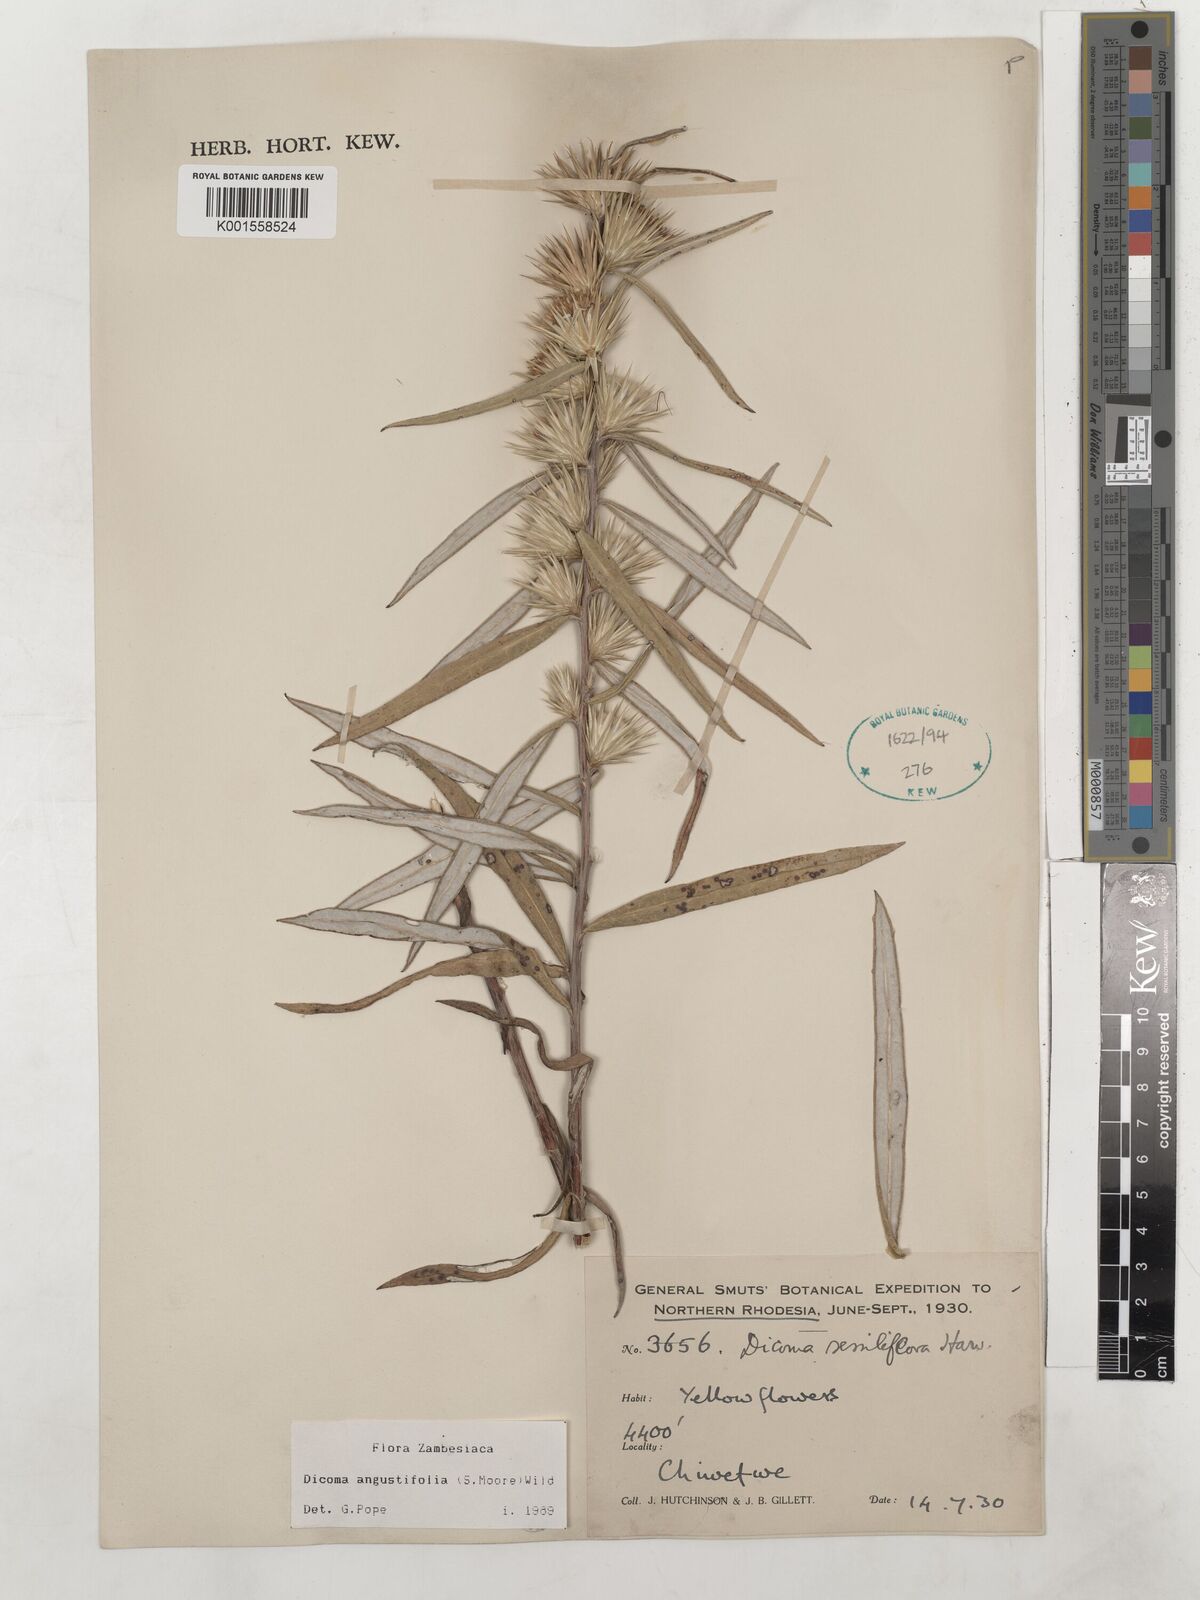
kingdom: Plantae
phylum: Tracheophyta
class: Magnoliopsida
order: Asterales
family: Asteraceae
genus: Macledium
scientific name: Macledium poggei
